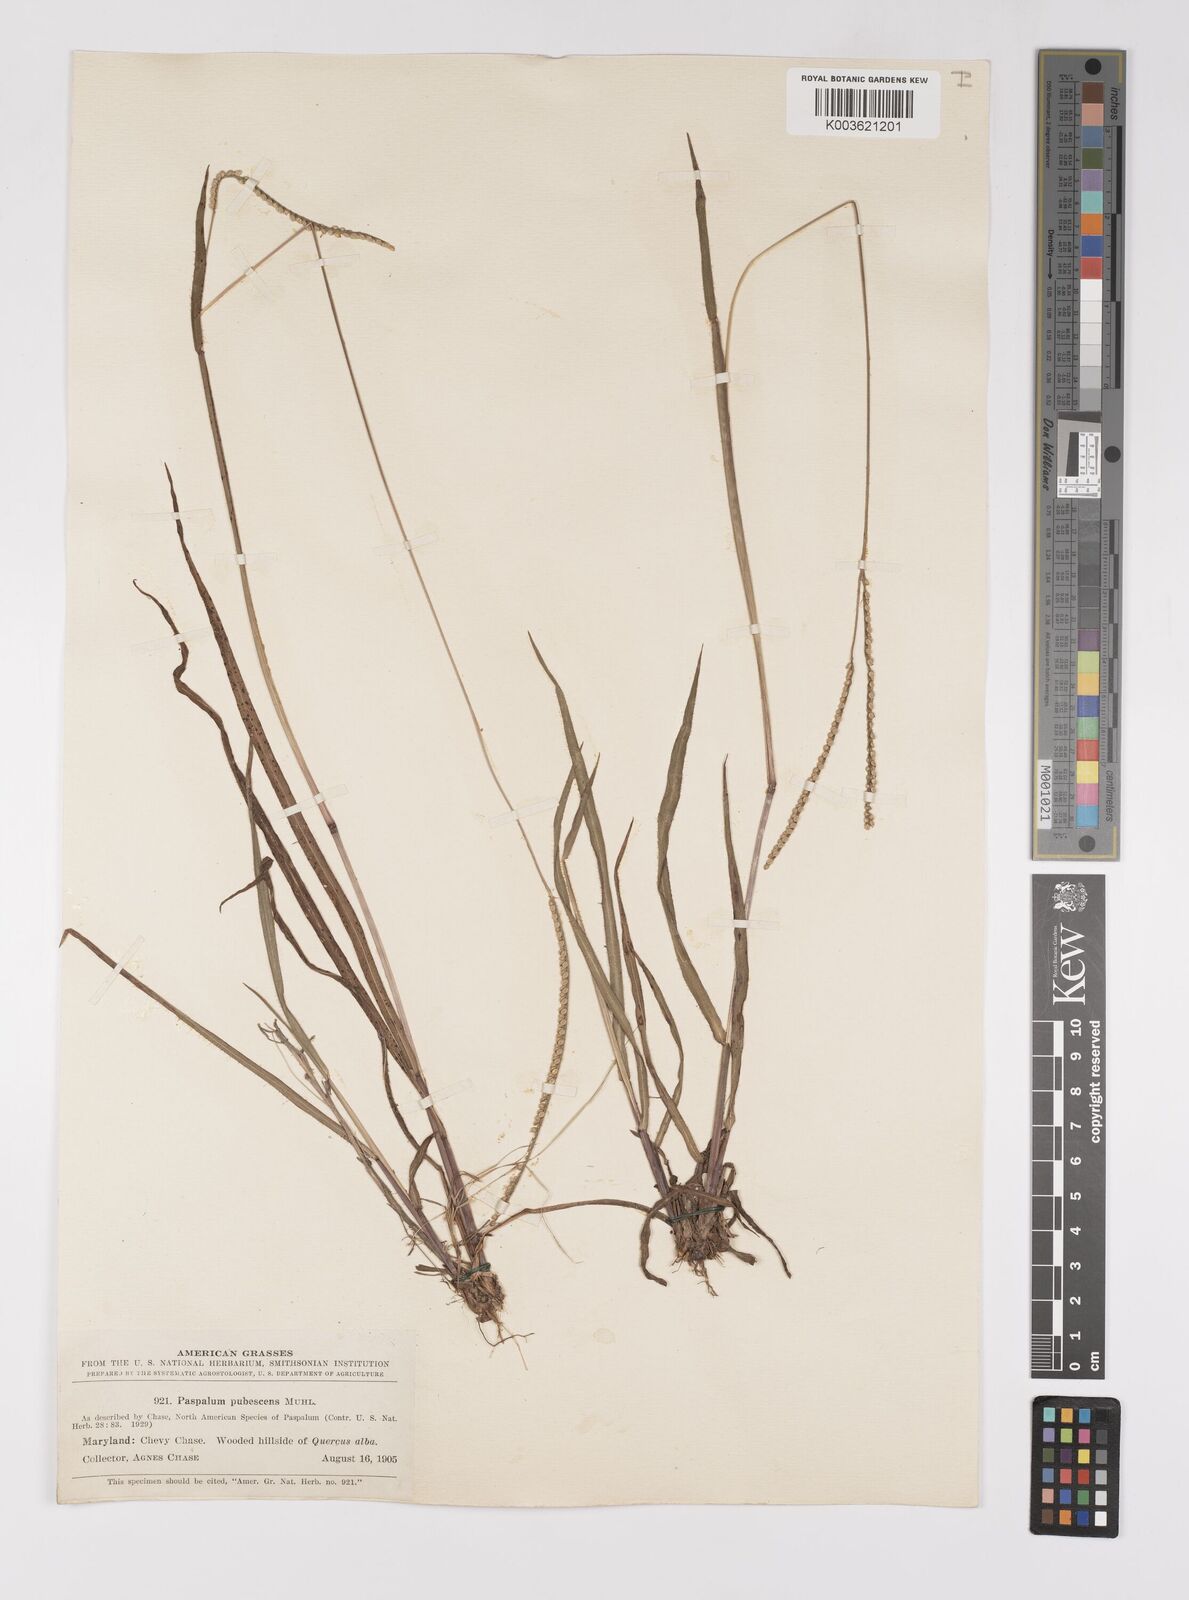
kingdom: Plantae
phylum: Tracheophyta
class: Liliopsida
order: Poales
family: Poaceae
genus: Paspalum
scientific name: Paspalum setaceum
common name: Slender paspalum
